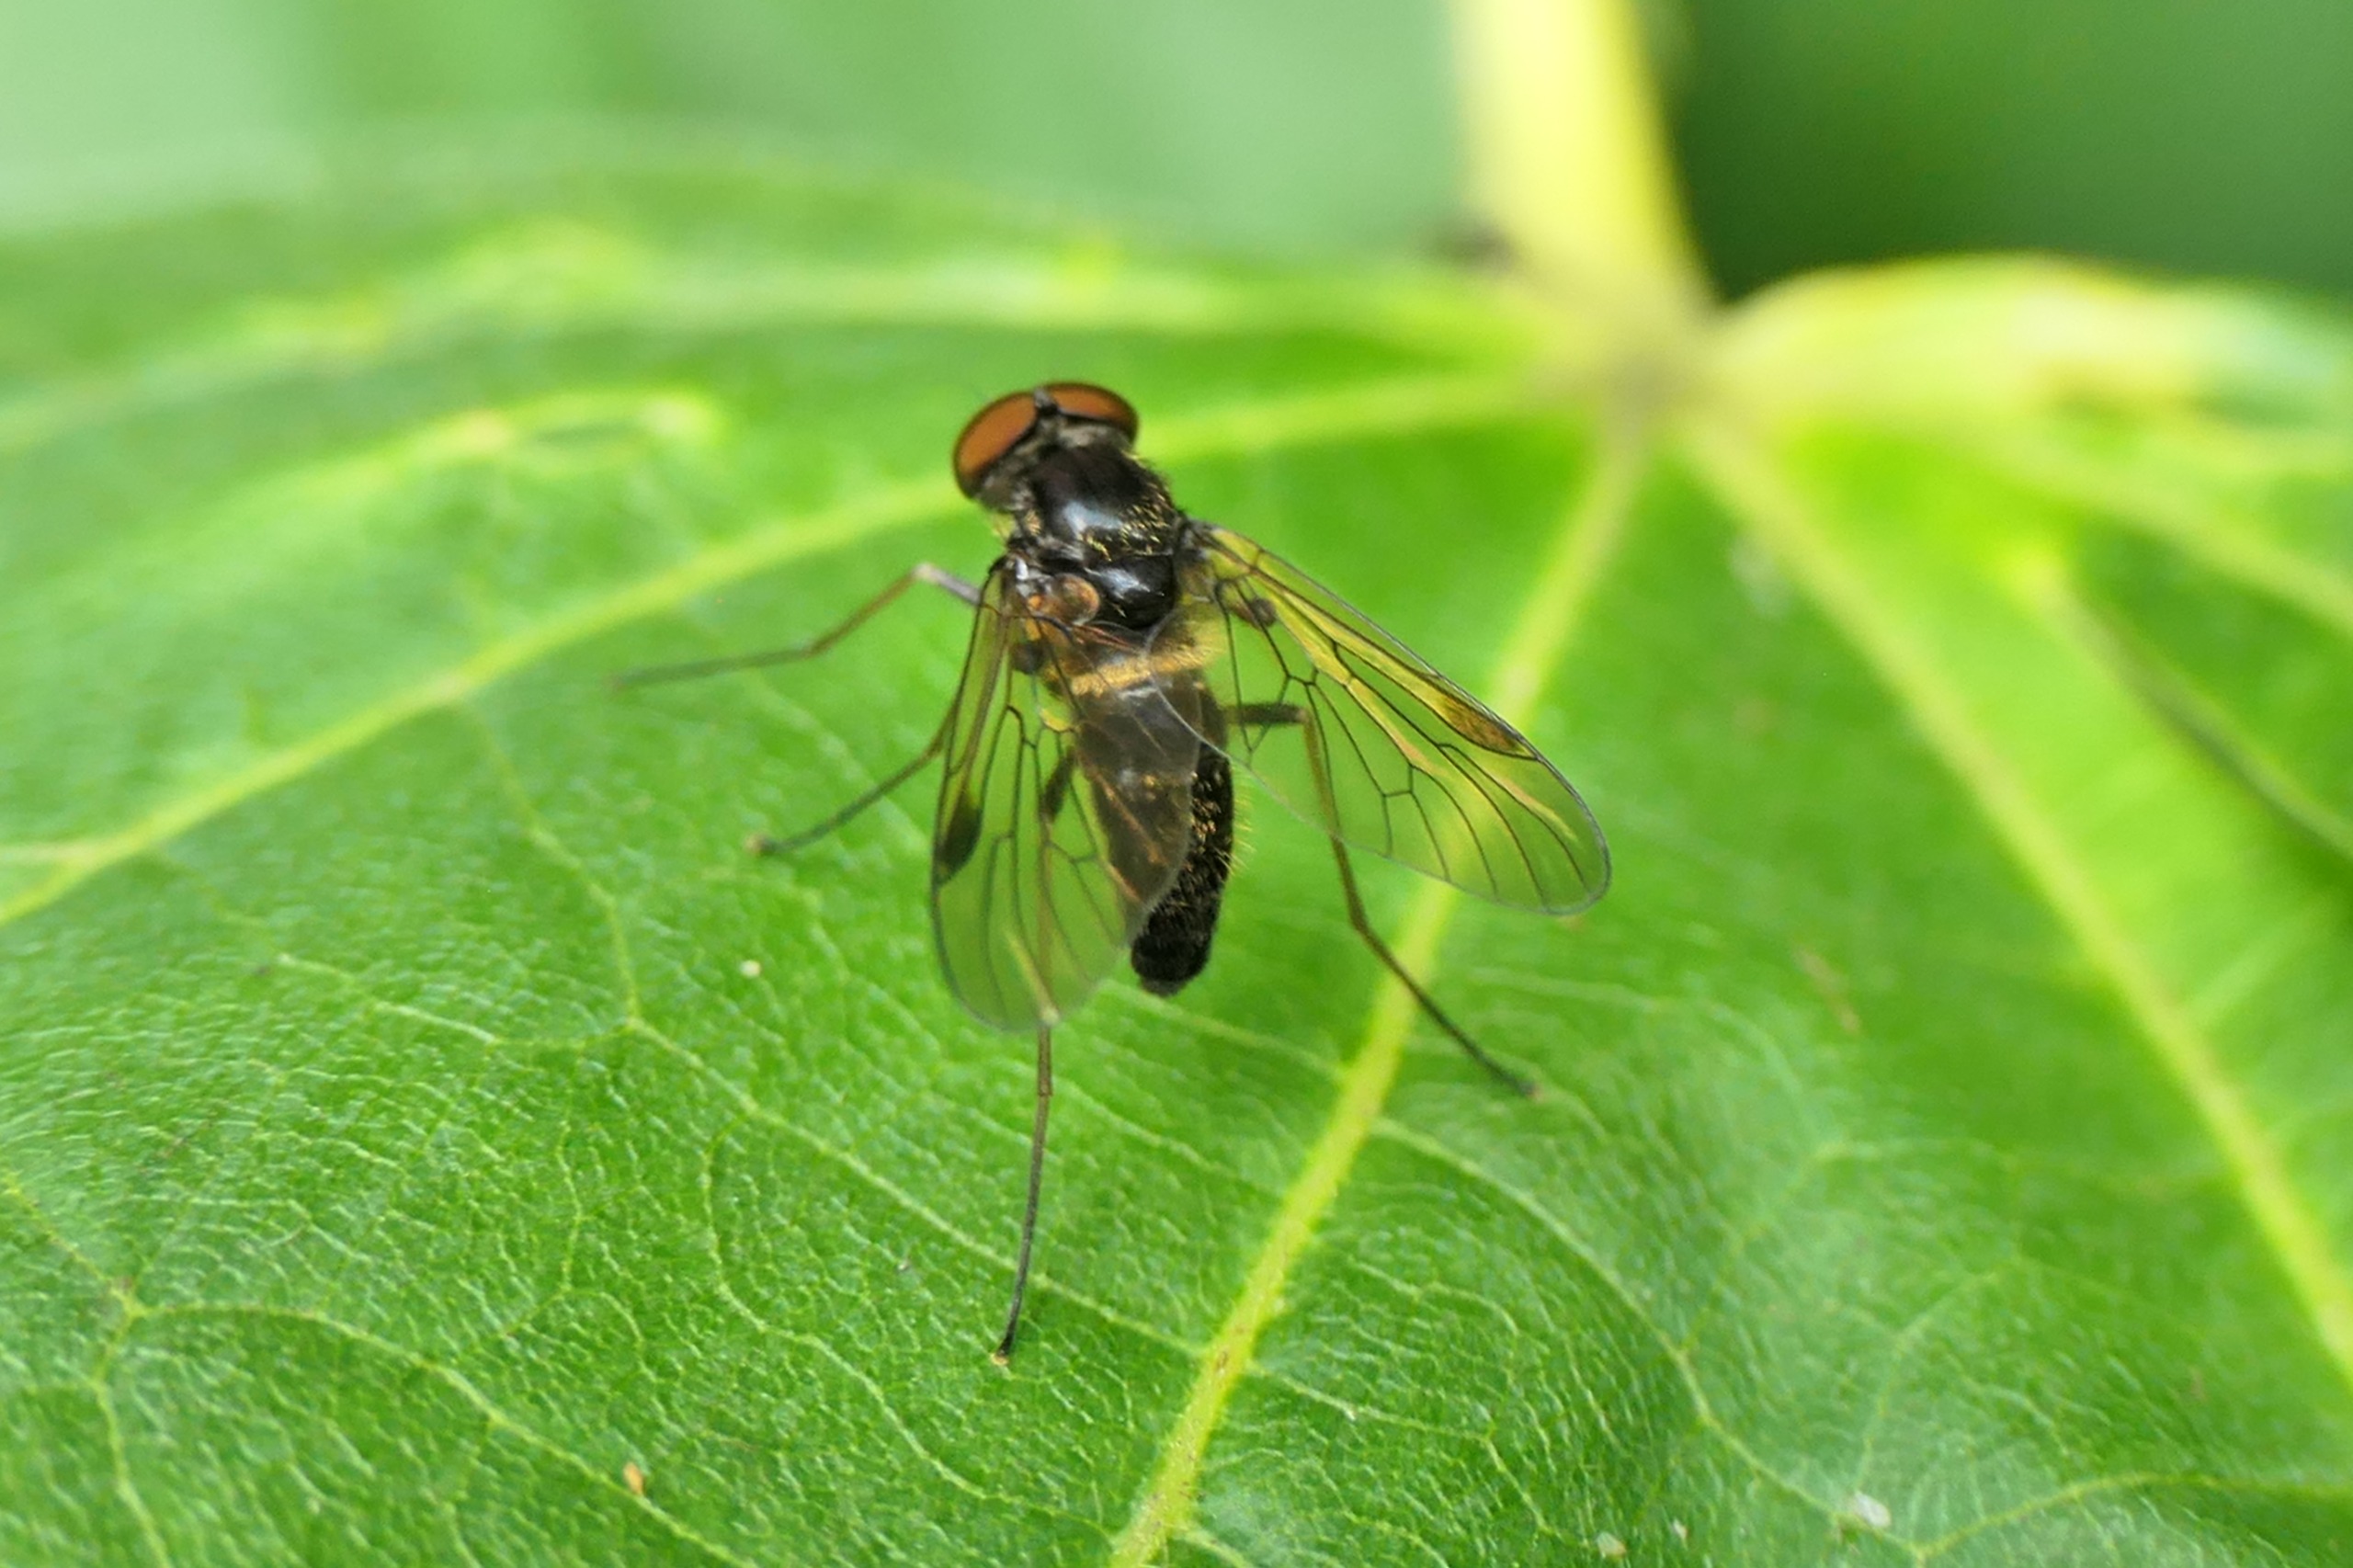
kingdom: Animalia
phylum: Arthropoda
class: Insecta
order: Diptera
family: Rhagionidae
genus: Chrysopilus
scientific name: Chrysopilus cristatus
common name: Gulhåret sneppeflue
